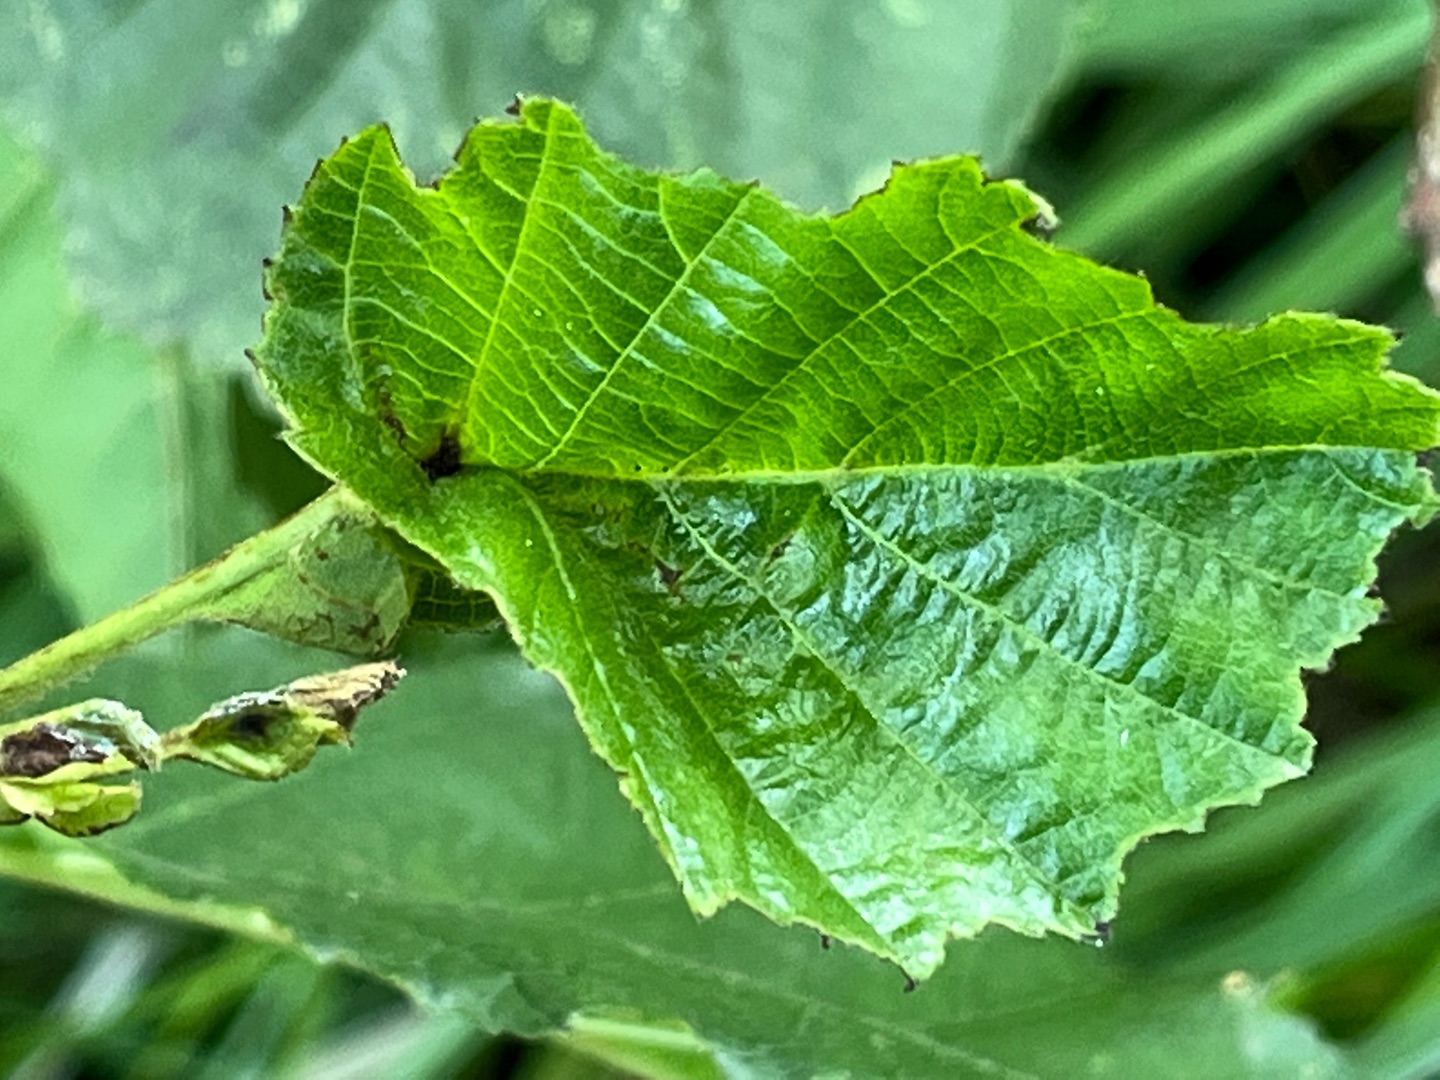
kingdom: Animalia
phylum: Arthropoda
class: Insecta
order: Diptera
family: Cecidomyiidae
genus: Dasineura
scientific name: Dasineura tortilis
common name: Ellebladgalmyg
